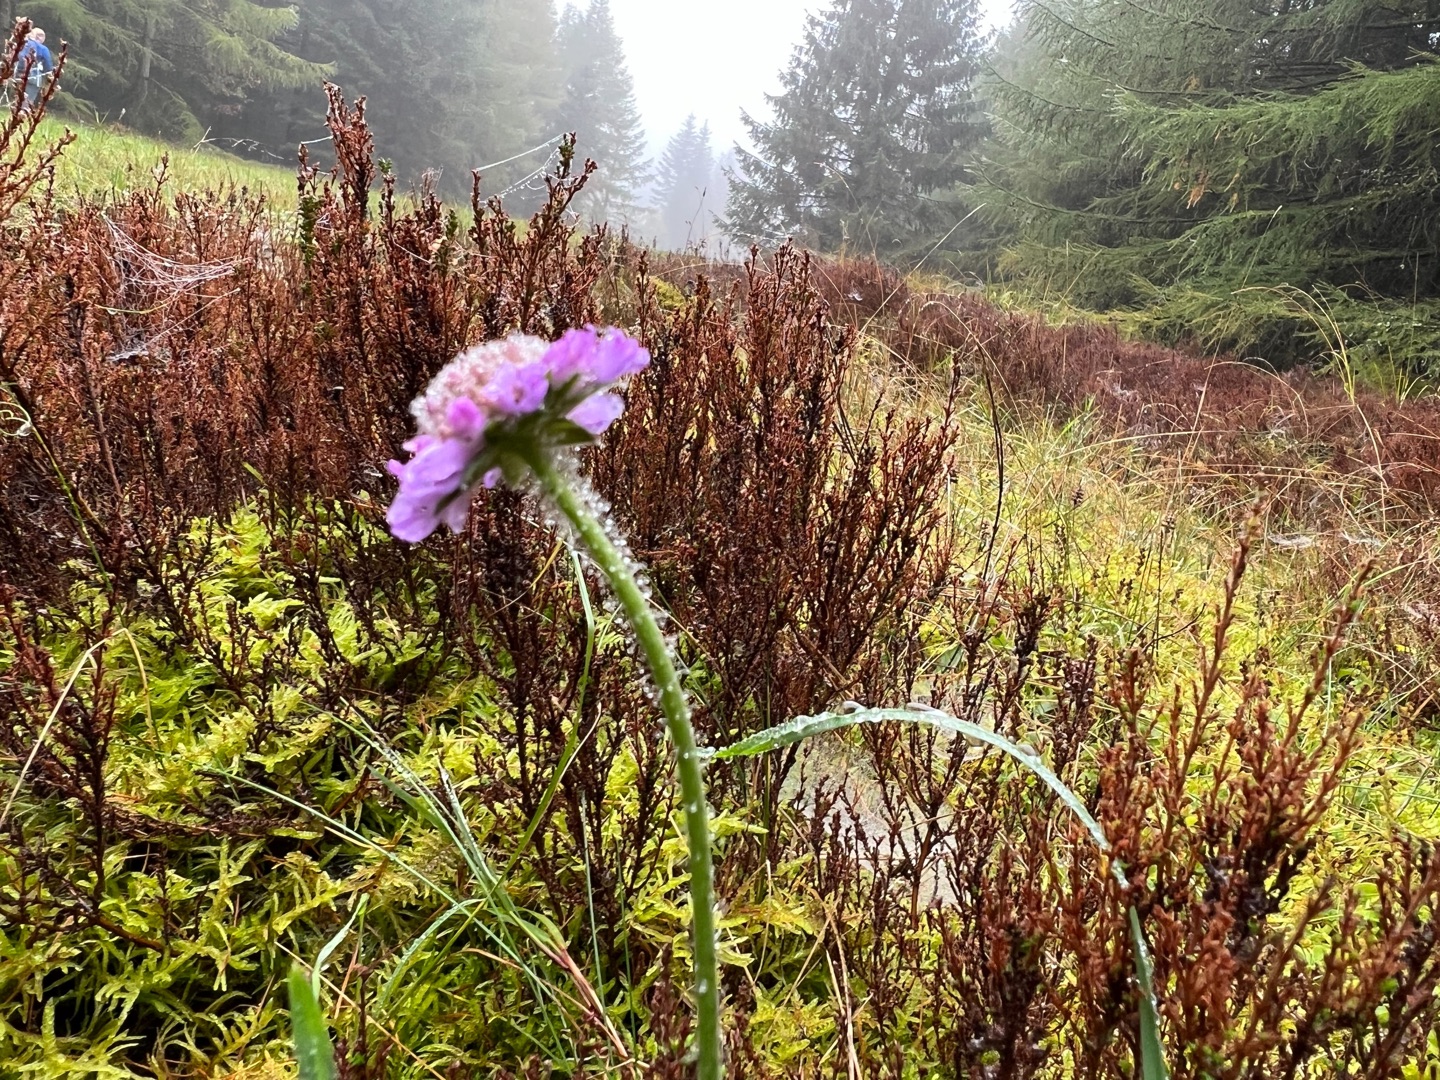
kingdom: Plantae
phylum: Tracheophyta
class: Magnoliopsida
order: Dipsacales
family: Caprifoliaceae
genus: Knautia
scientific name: Knautia arvensis
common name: Blåhat
